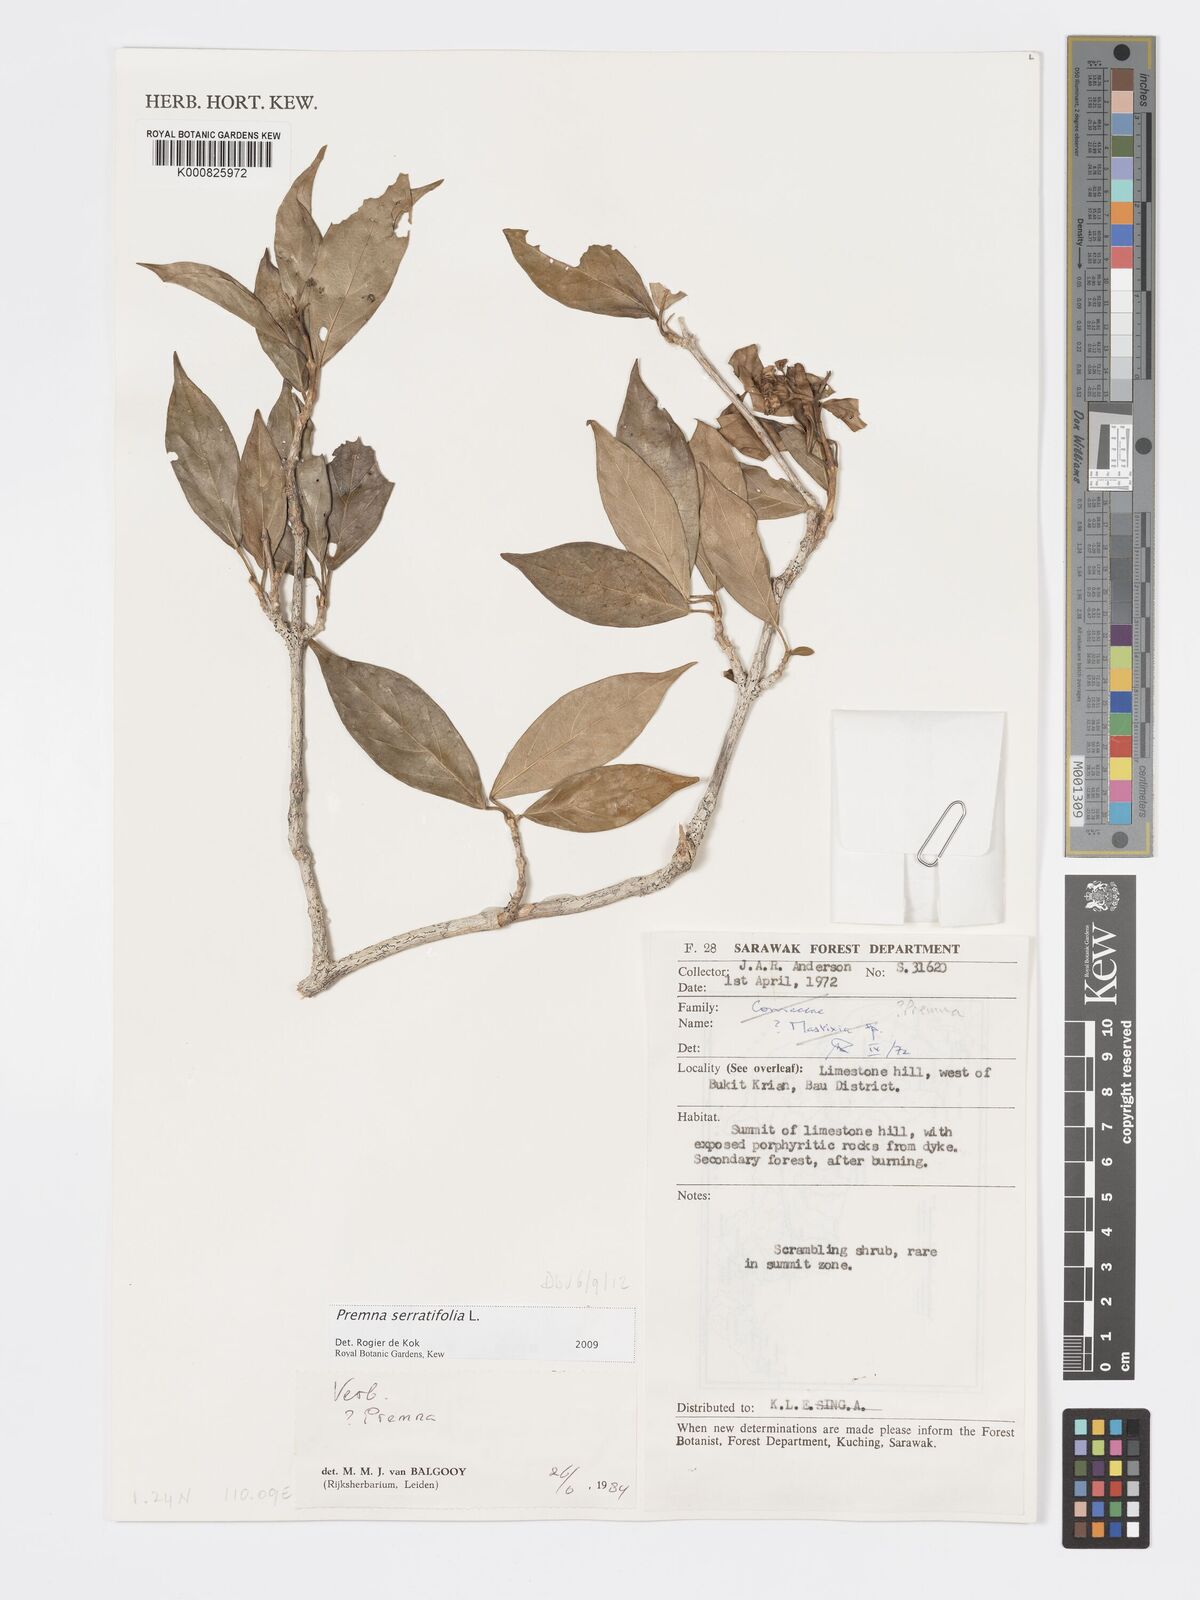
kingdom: Plantae
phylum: Tracheophyta
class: Magnoliopsida
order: Lamiales
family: Lamiaceae
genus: Premna
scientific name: Premna serratifolia
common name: Bastard guelder
